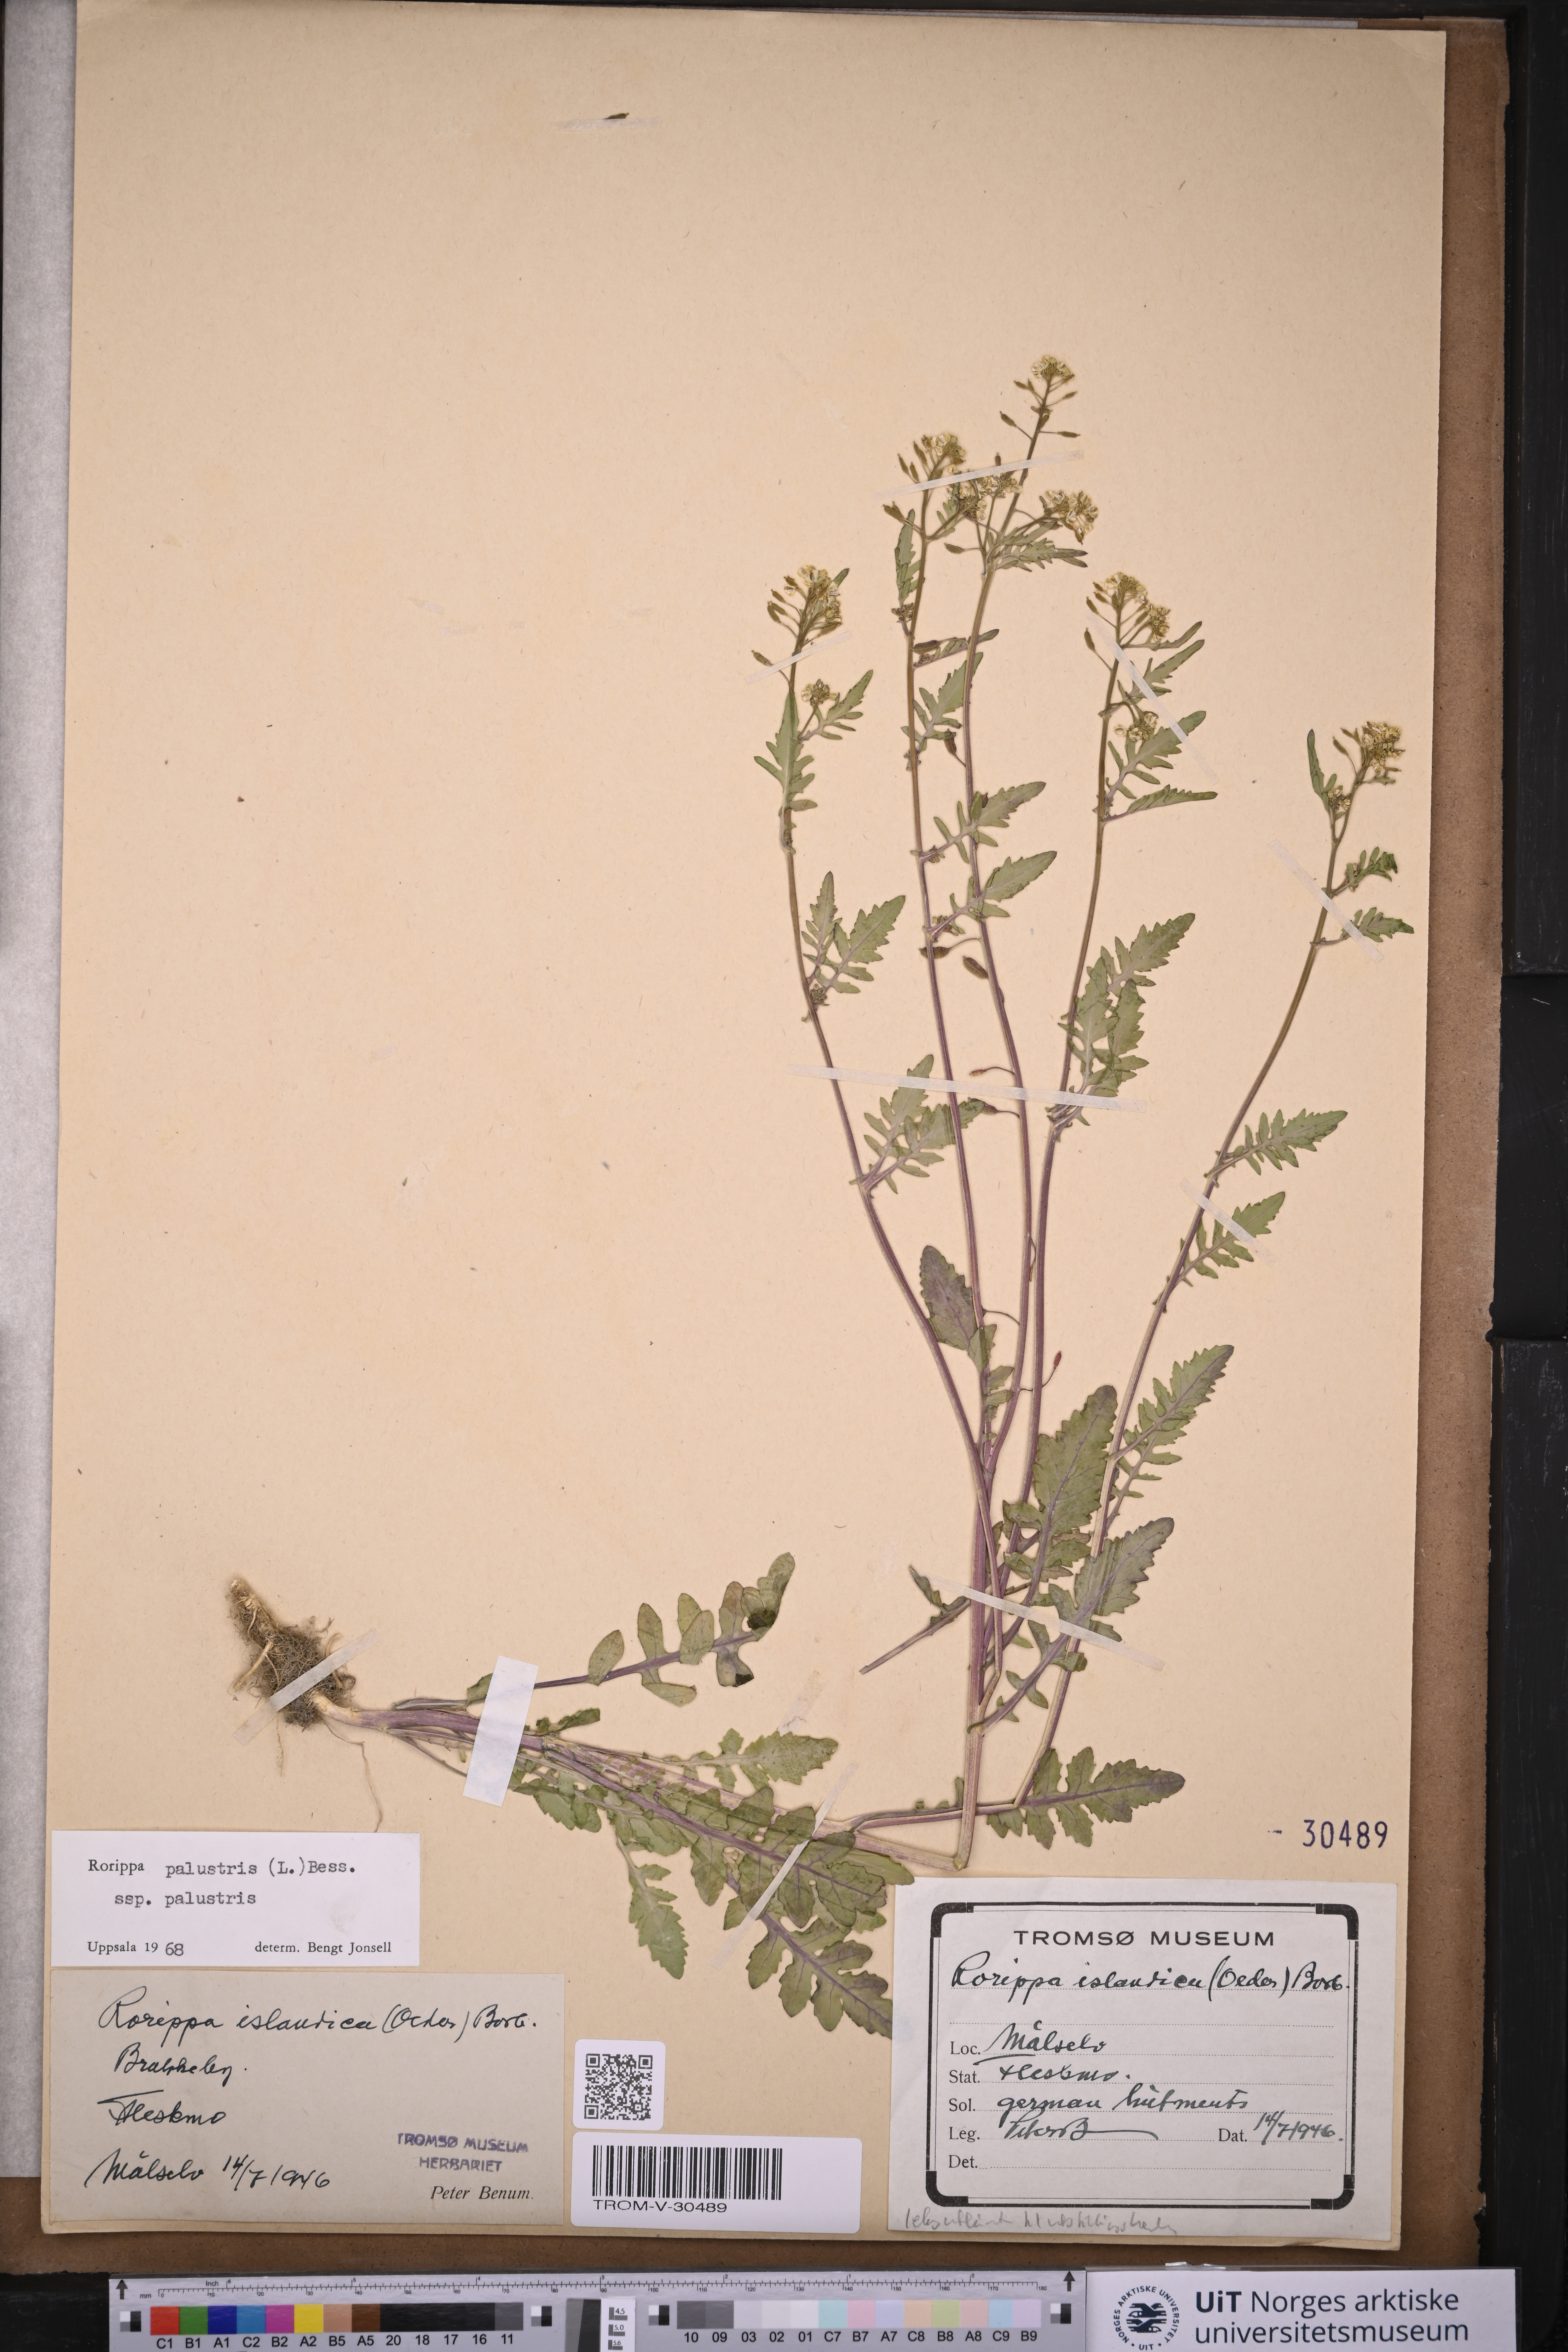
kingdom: Plantae
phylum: Tracheophyta
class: Magnoliopsida
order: Brassicales
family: Brassicaceae
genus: Rorippa
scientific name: Rorippa palustris
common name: Marsh yellow-cress
